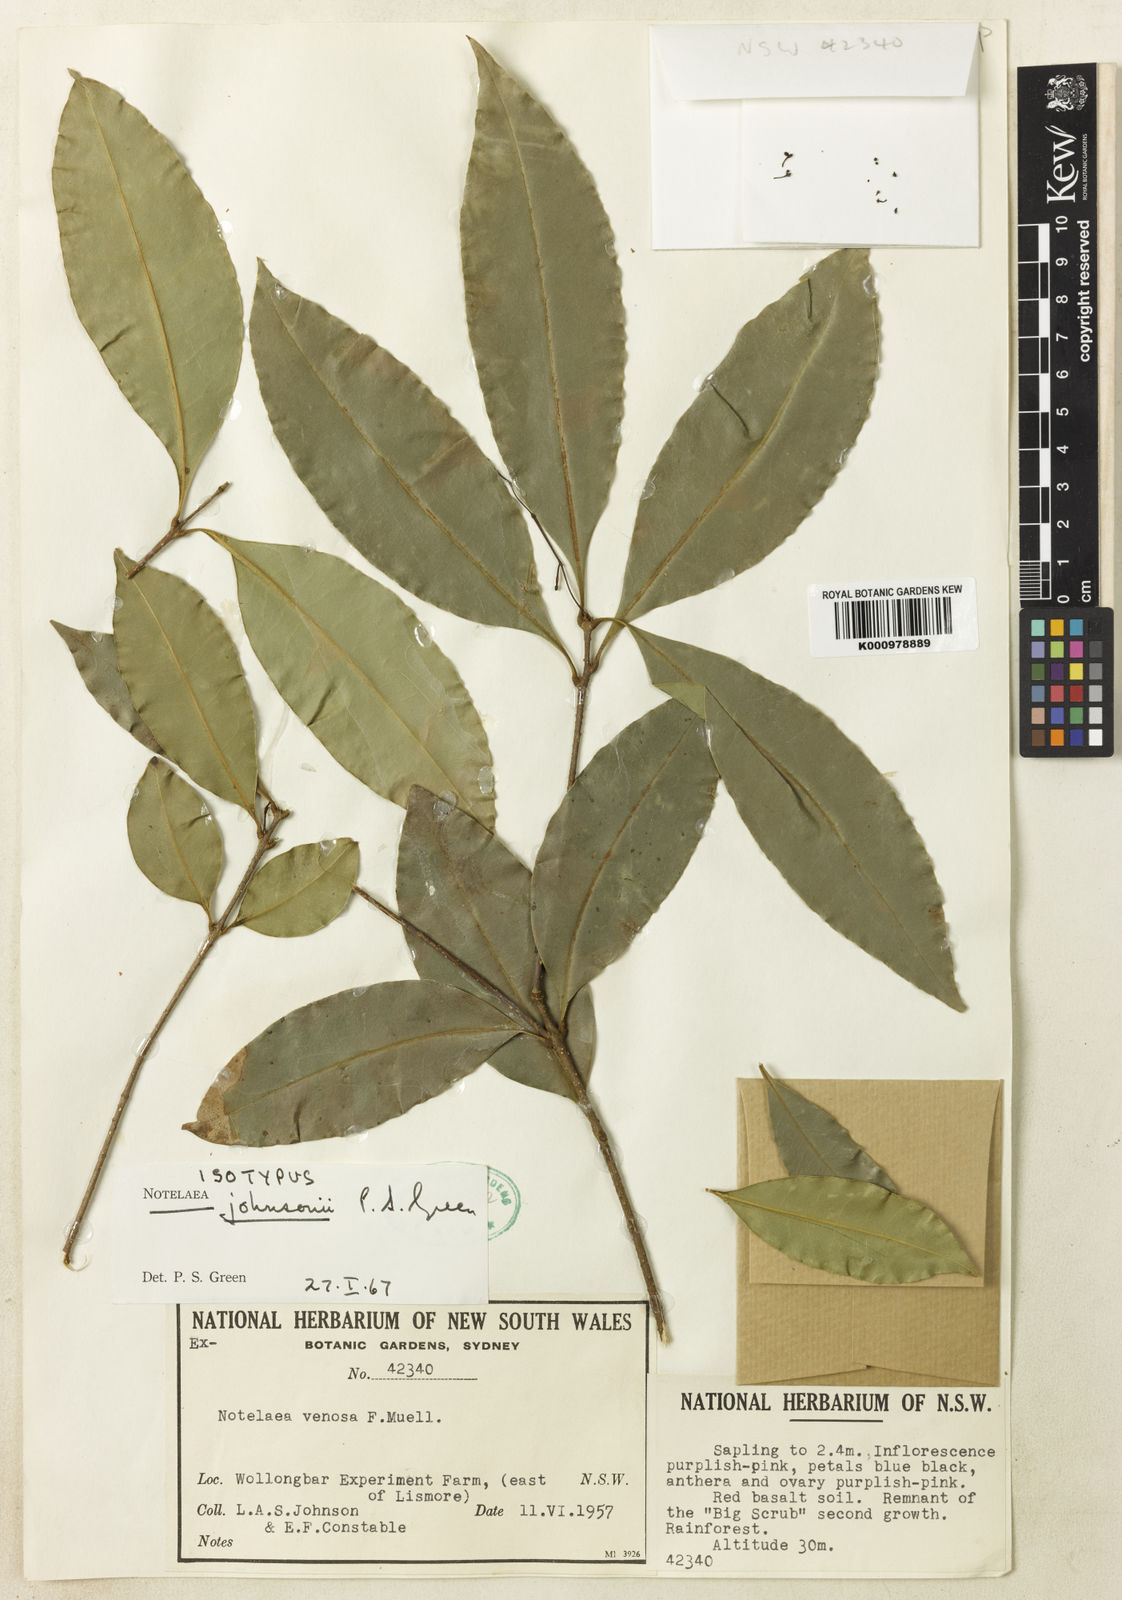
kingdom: Plantae
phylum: Tracheophyta
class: Magnoliopsida
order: Lamiales
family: Oleaceae
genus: Notelaea
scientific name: Notelaea johnsonii
